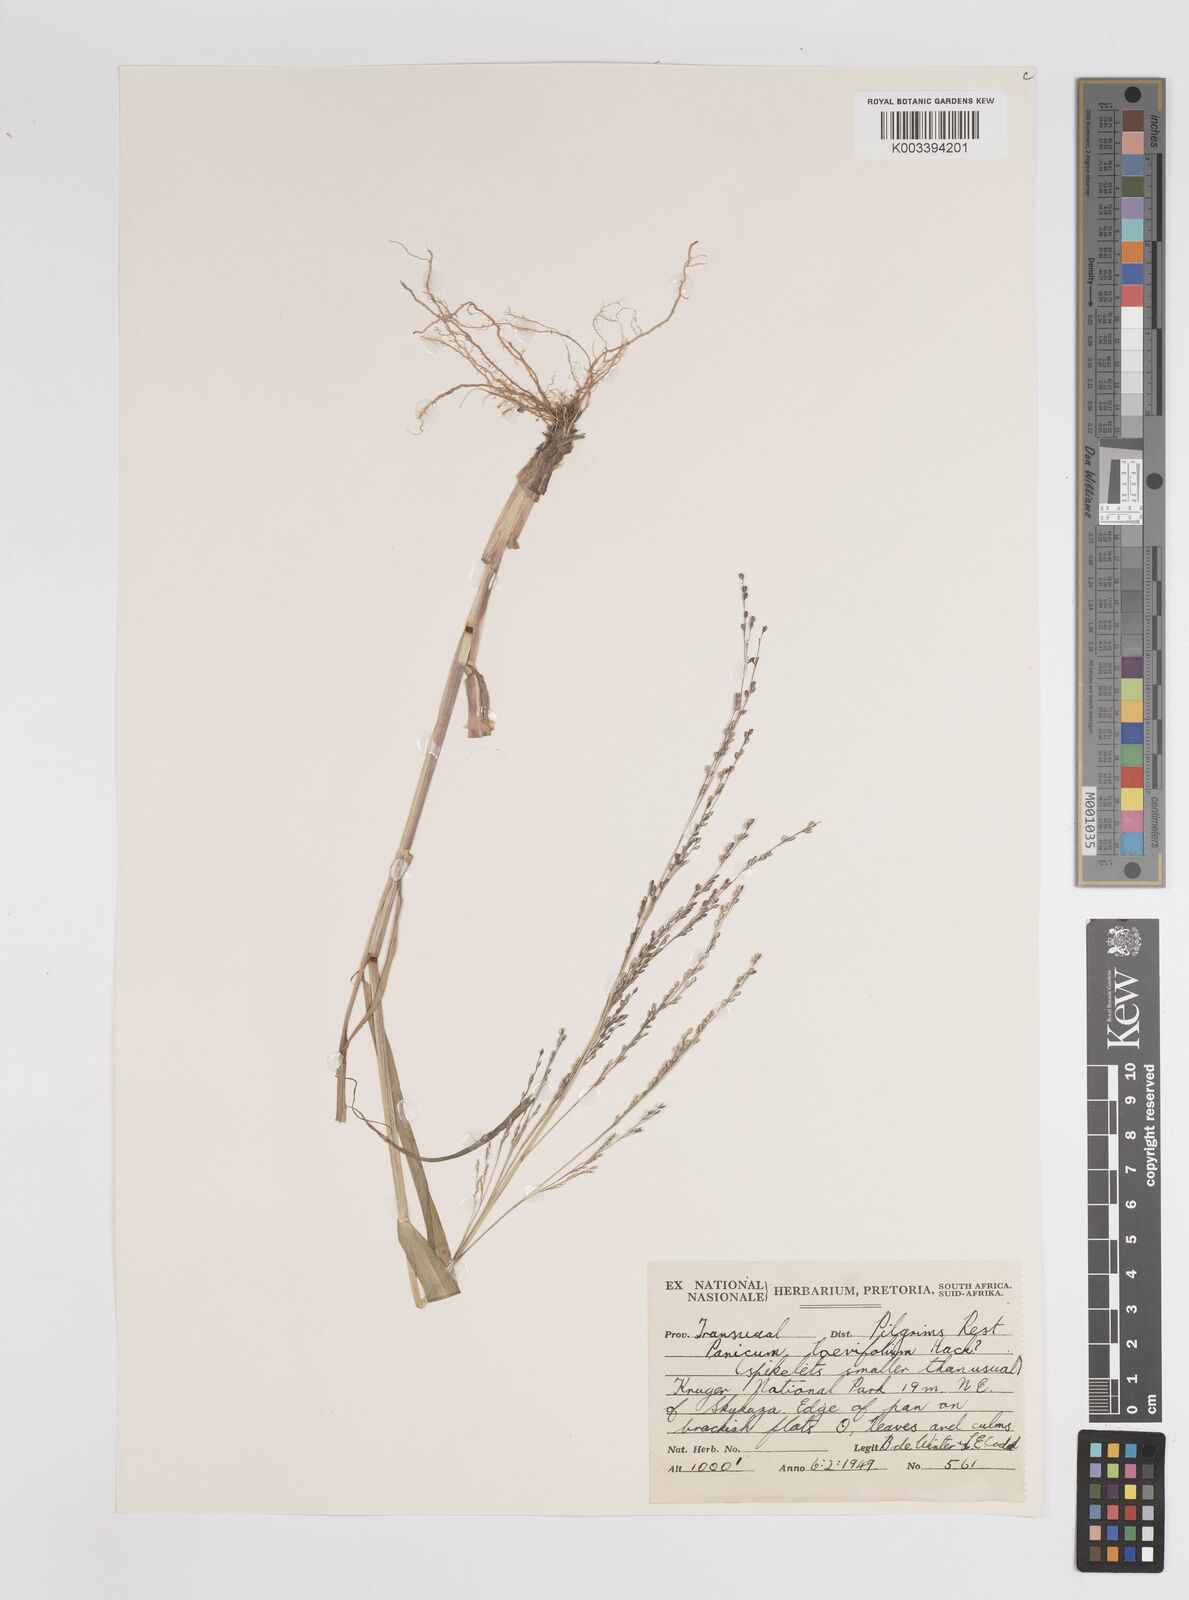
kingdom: Plantae
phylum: Tracheophyta
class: Liliopsida
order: Poales
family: Poaceae
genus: Panicum
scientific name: Panicum schinzii
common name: Sweet grass
